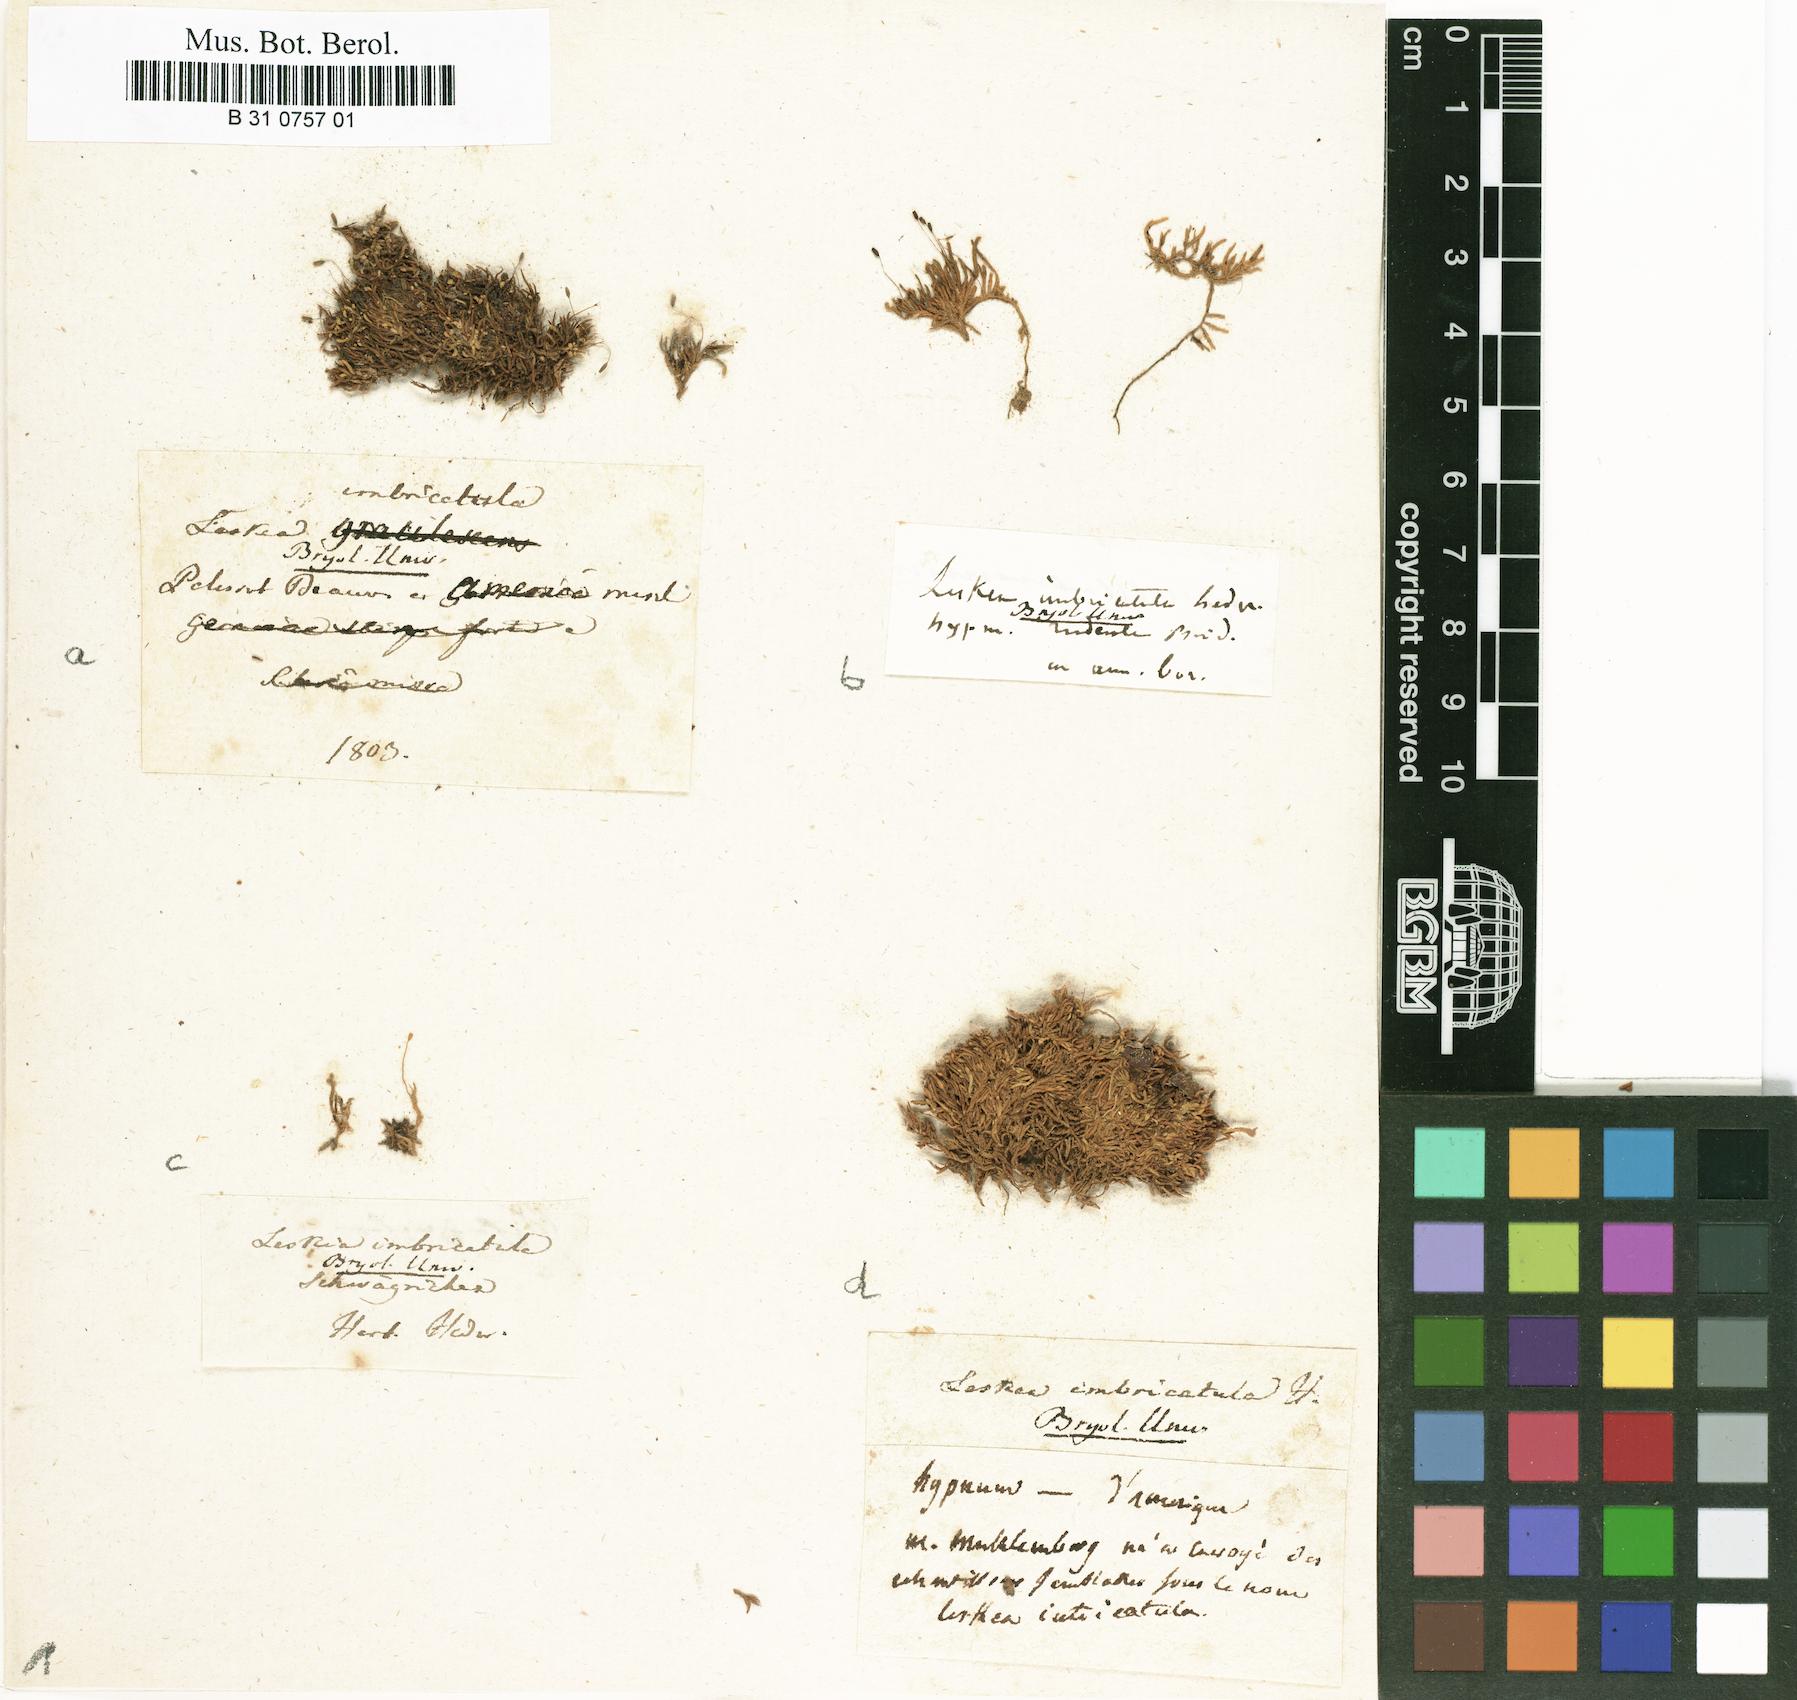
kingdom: Plantae
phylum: Bryophyta
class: Bryopsida
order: Hypnales
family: Brachytheciaceae
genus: Brachythecium
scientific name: Brachythecium acuminatum
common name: Acuminate ragged moss
